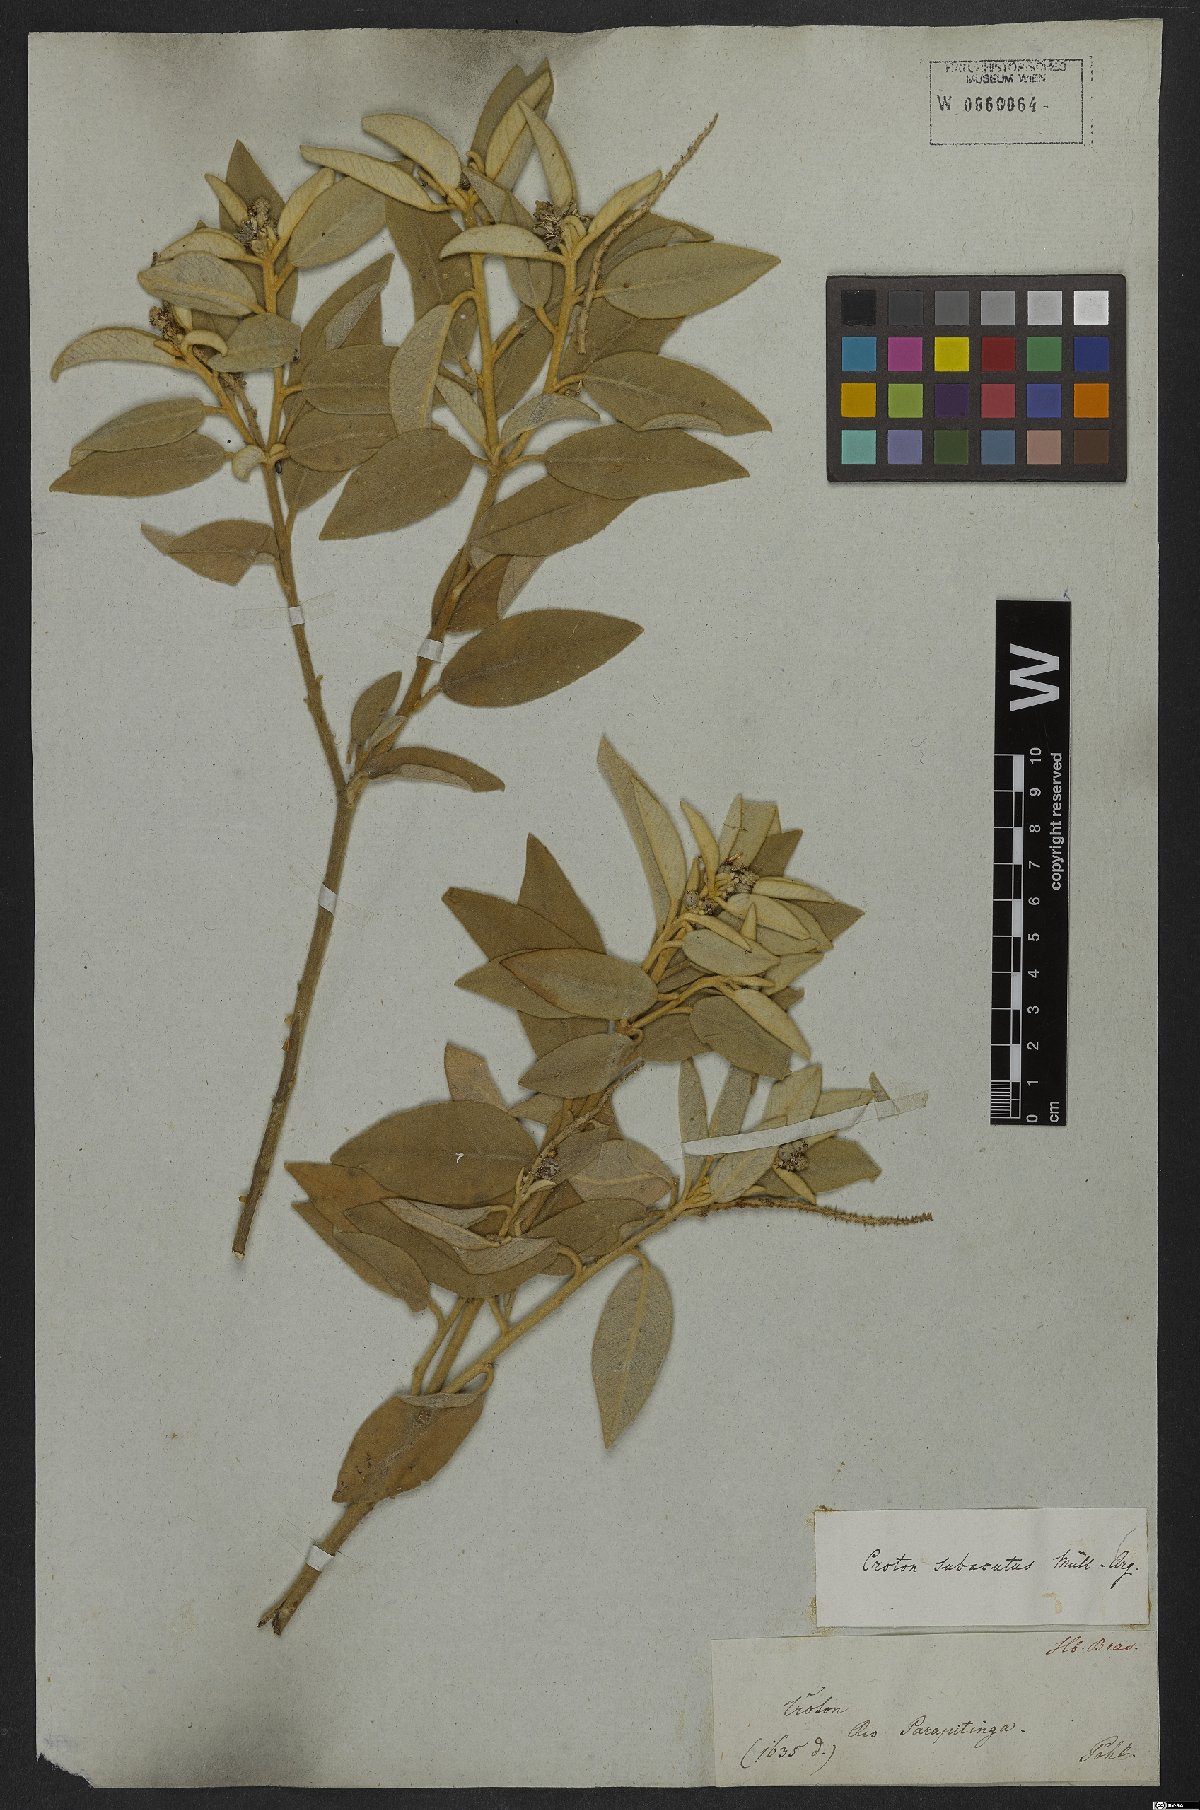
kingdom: Plantae
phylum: Tracheophyta
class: Magnoliopsida
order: Malpighiales
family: Euphorbiaceae
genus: Croton
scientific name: Croton campestris
